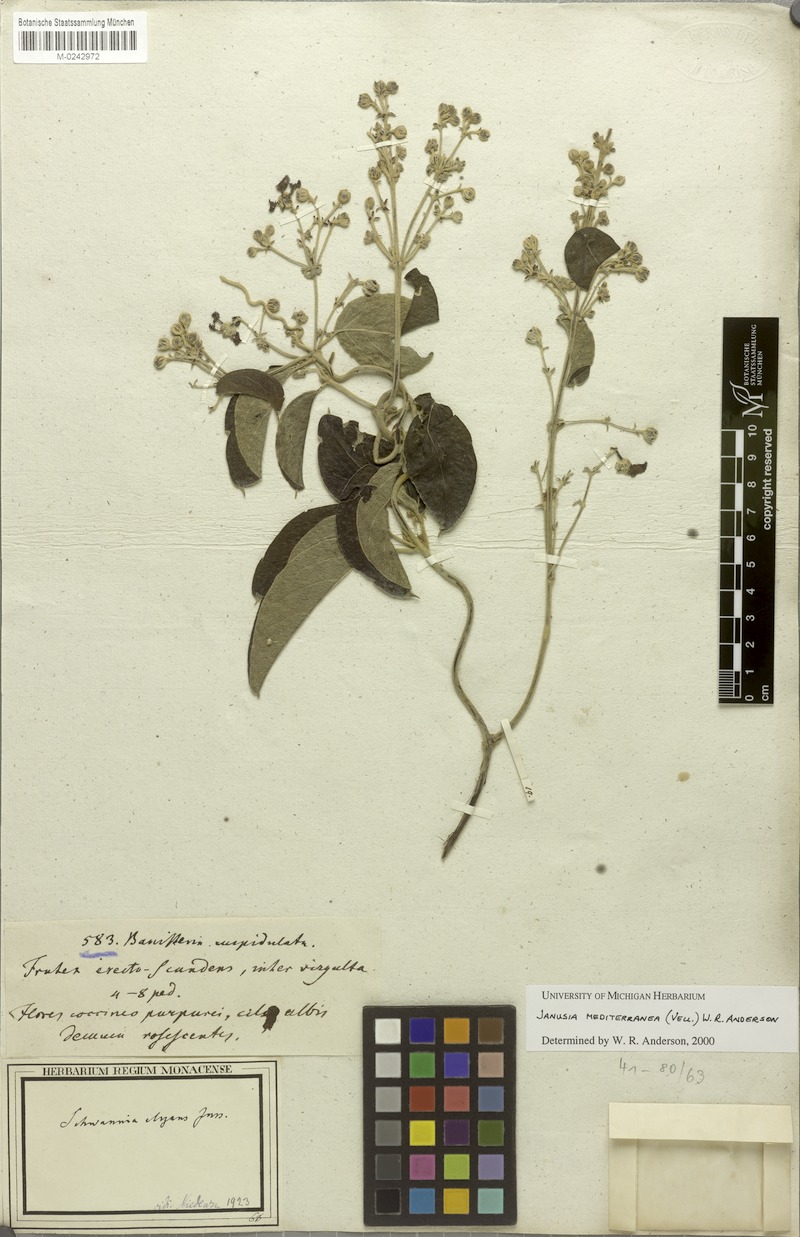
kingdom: Plantae
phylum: Tracheophyta
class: Magnoliopsida
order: Malpighiales
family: Malpighiaceae
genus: Janusia
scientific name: Janusia mediterranea
